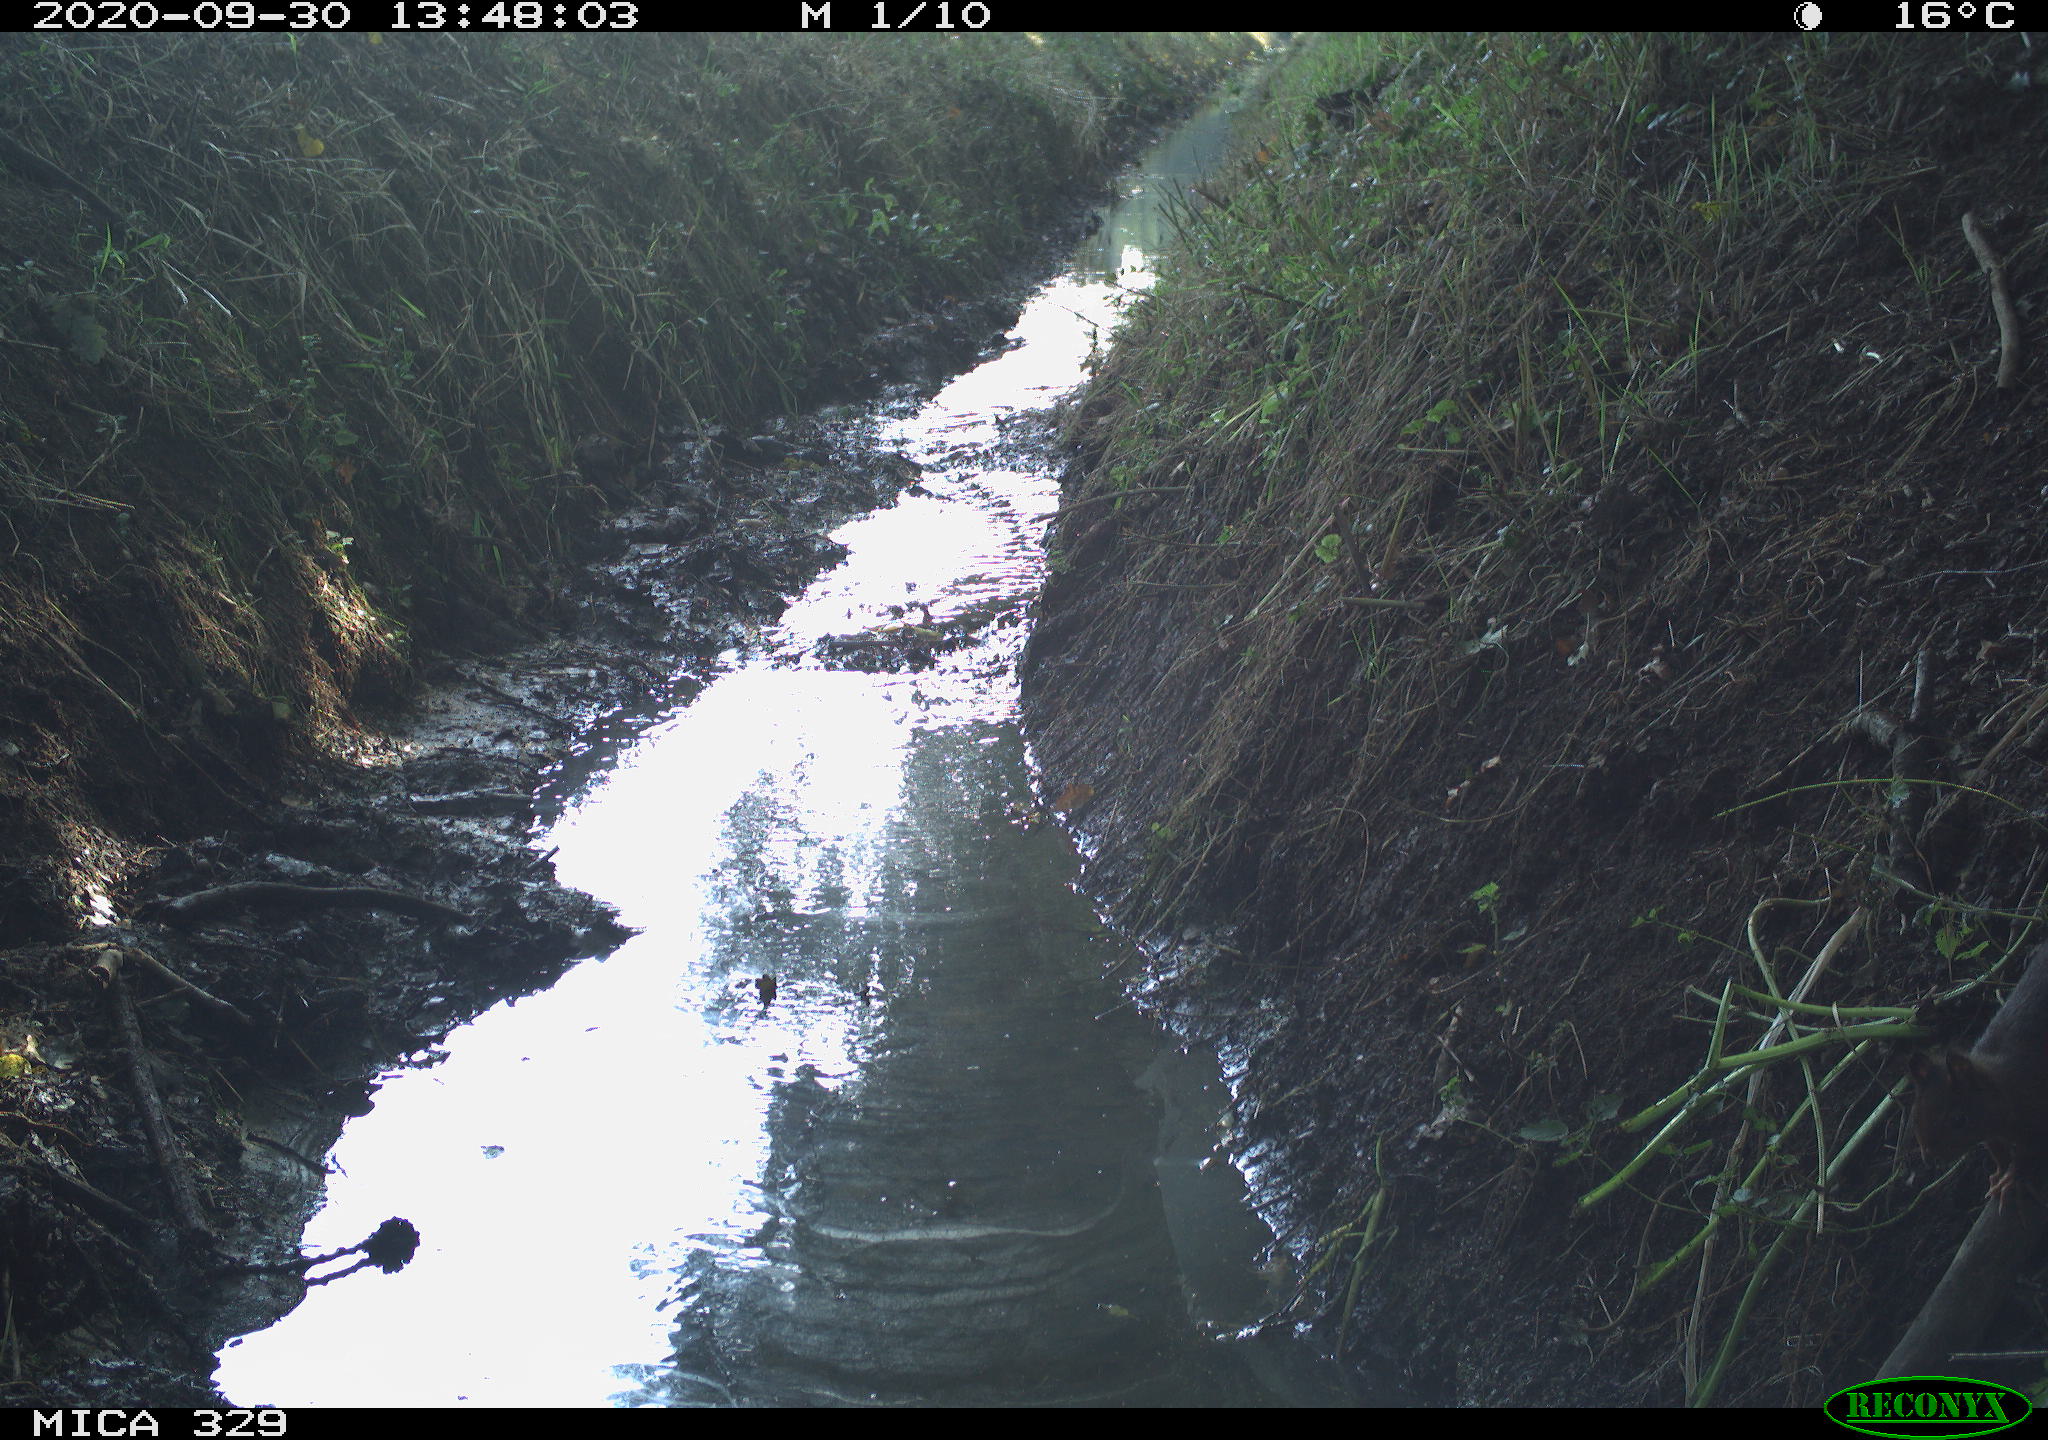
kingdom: Animalia
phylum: Chordata
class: Mammalia
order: Rodentia
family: Sciuridae
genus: Sciurus
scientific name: Sciurus vulgaris
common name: Eurasian red squirrel
